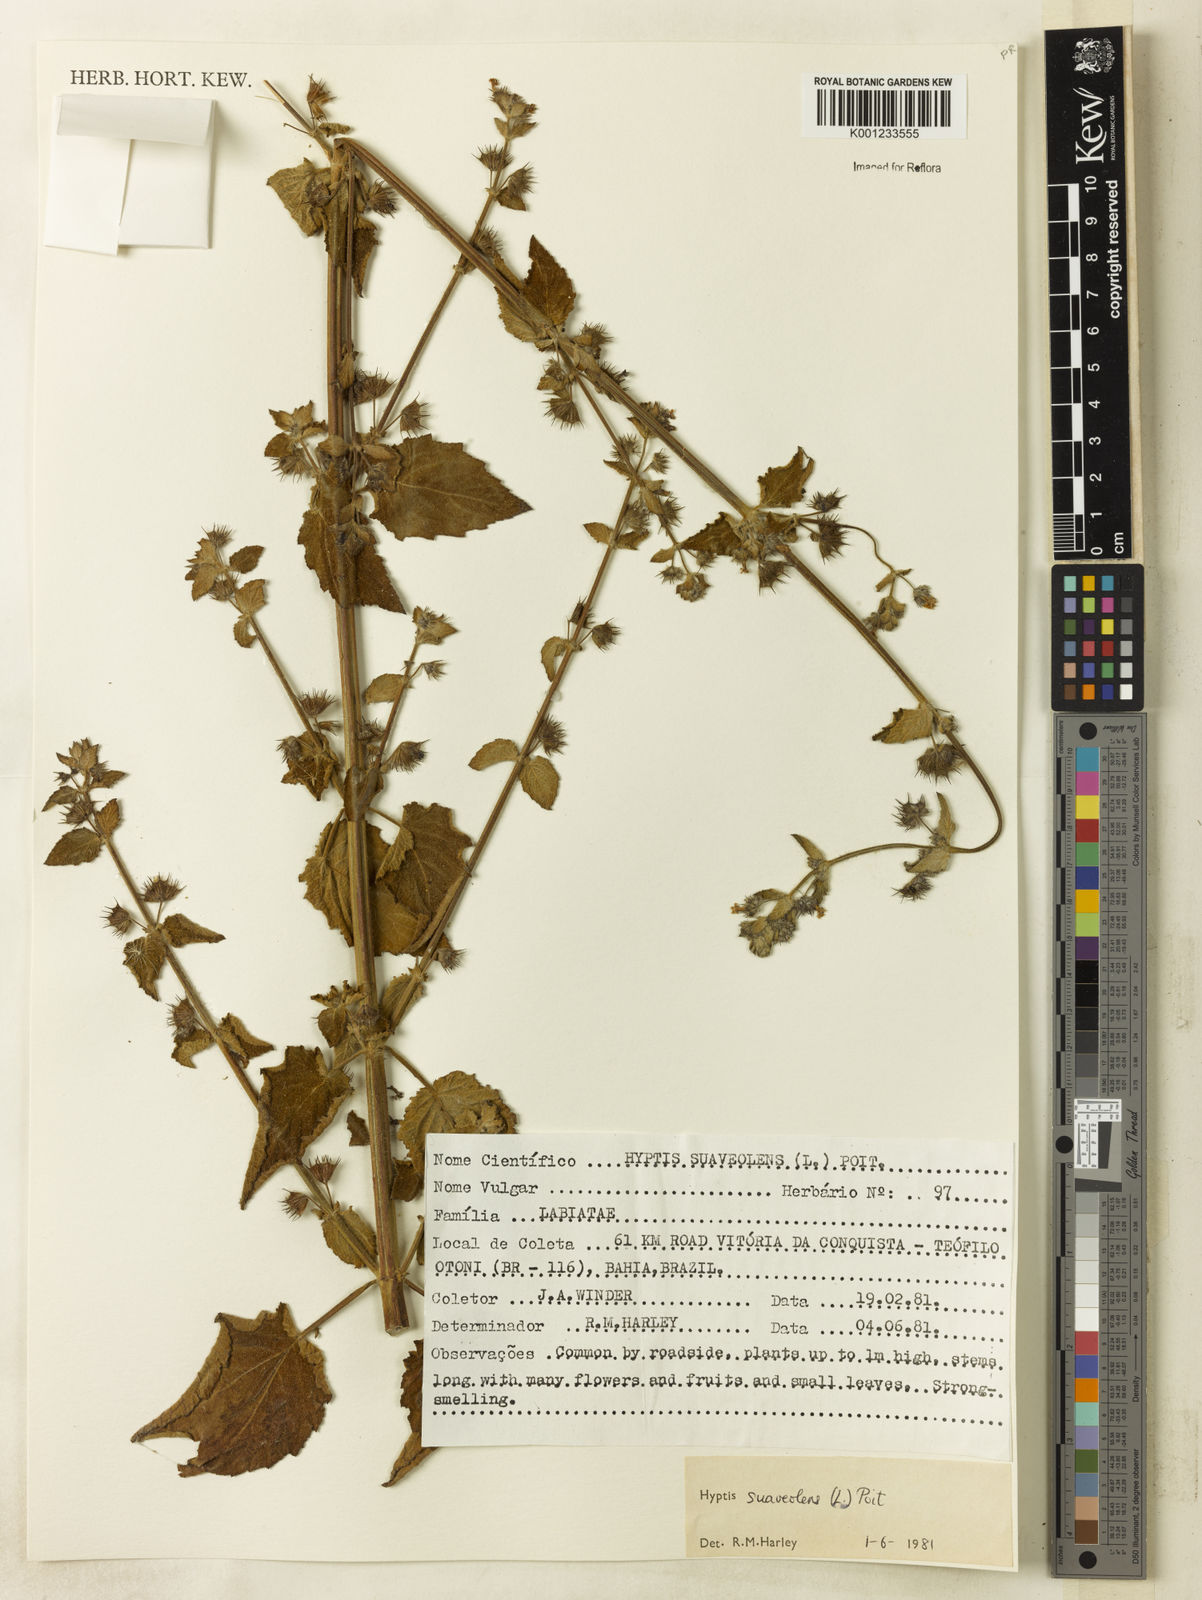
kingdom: Plantae
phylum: Tracheophyta
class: Magnoliopsida
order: Lamiales
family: Lamiaceae
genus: Mesosphaerum
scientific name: Mesosphaerum suaveolens
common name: Pignut
